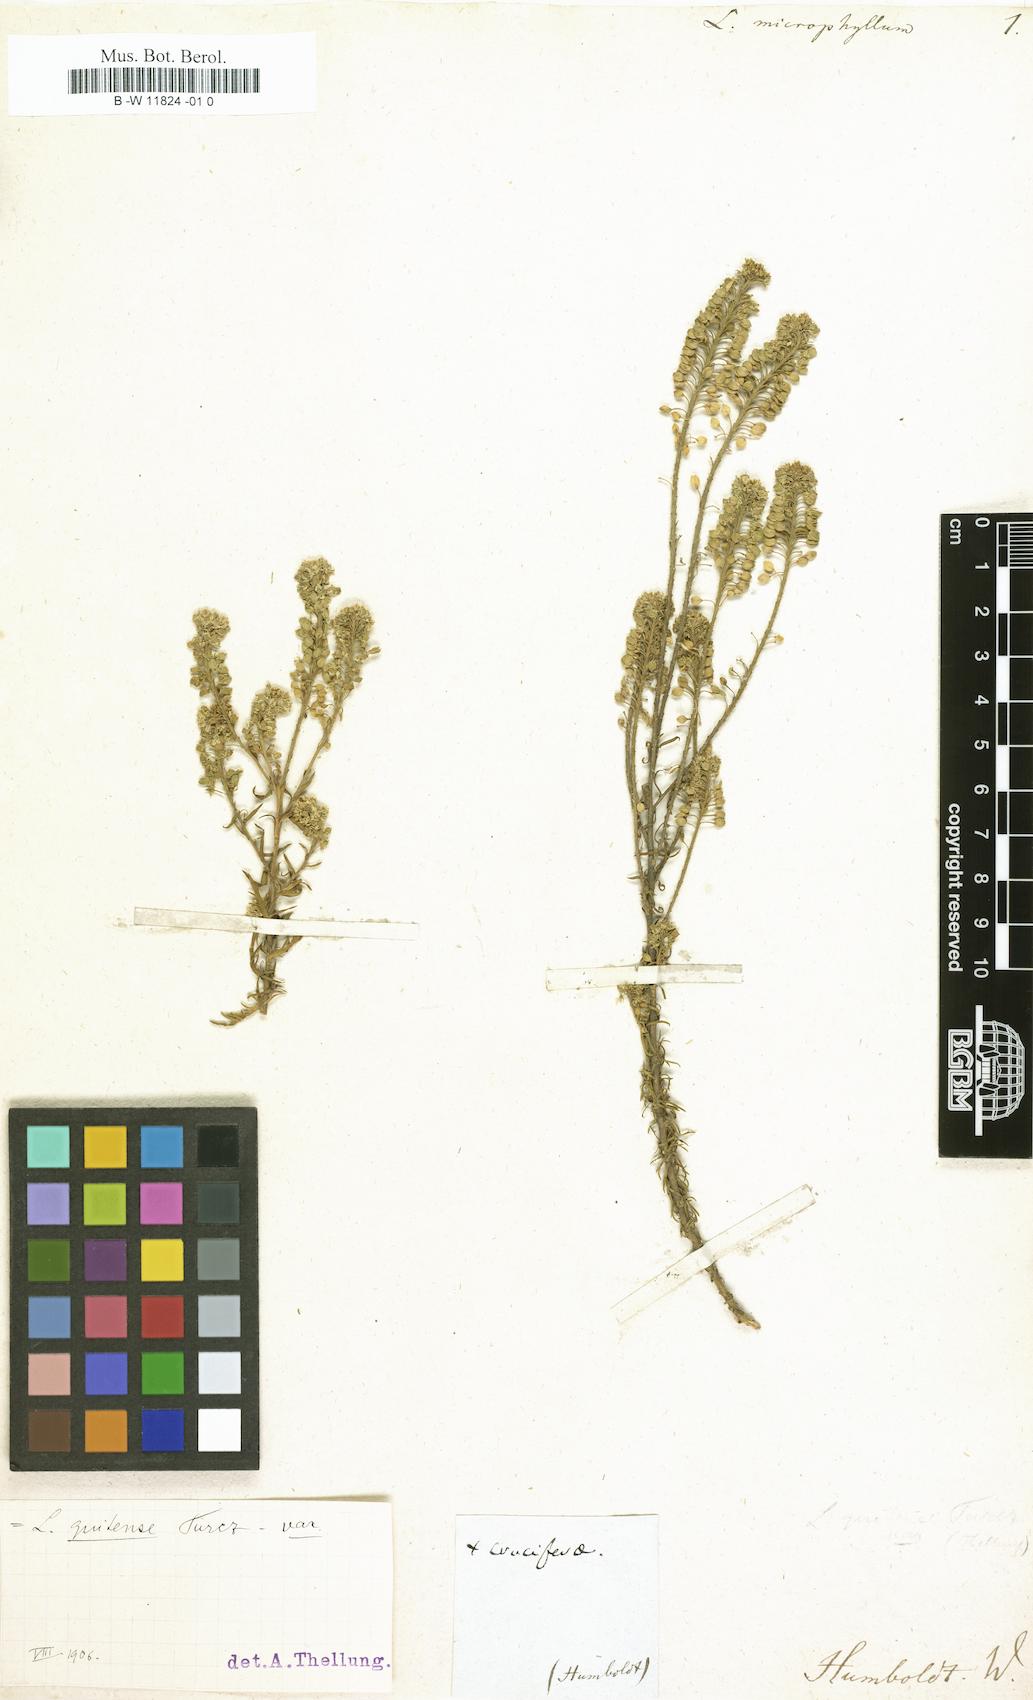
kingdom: Plantae
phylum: Tracheophyta
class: Magnoliopsida
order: Brassicales
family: Brassicaceae
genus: Lepidium
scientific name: Lepidium hirtum
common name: Mediterranean pepperweed
